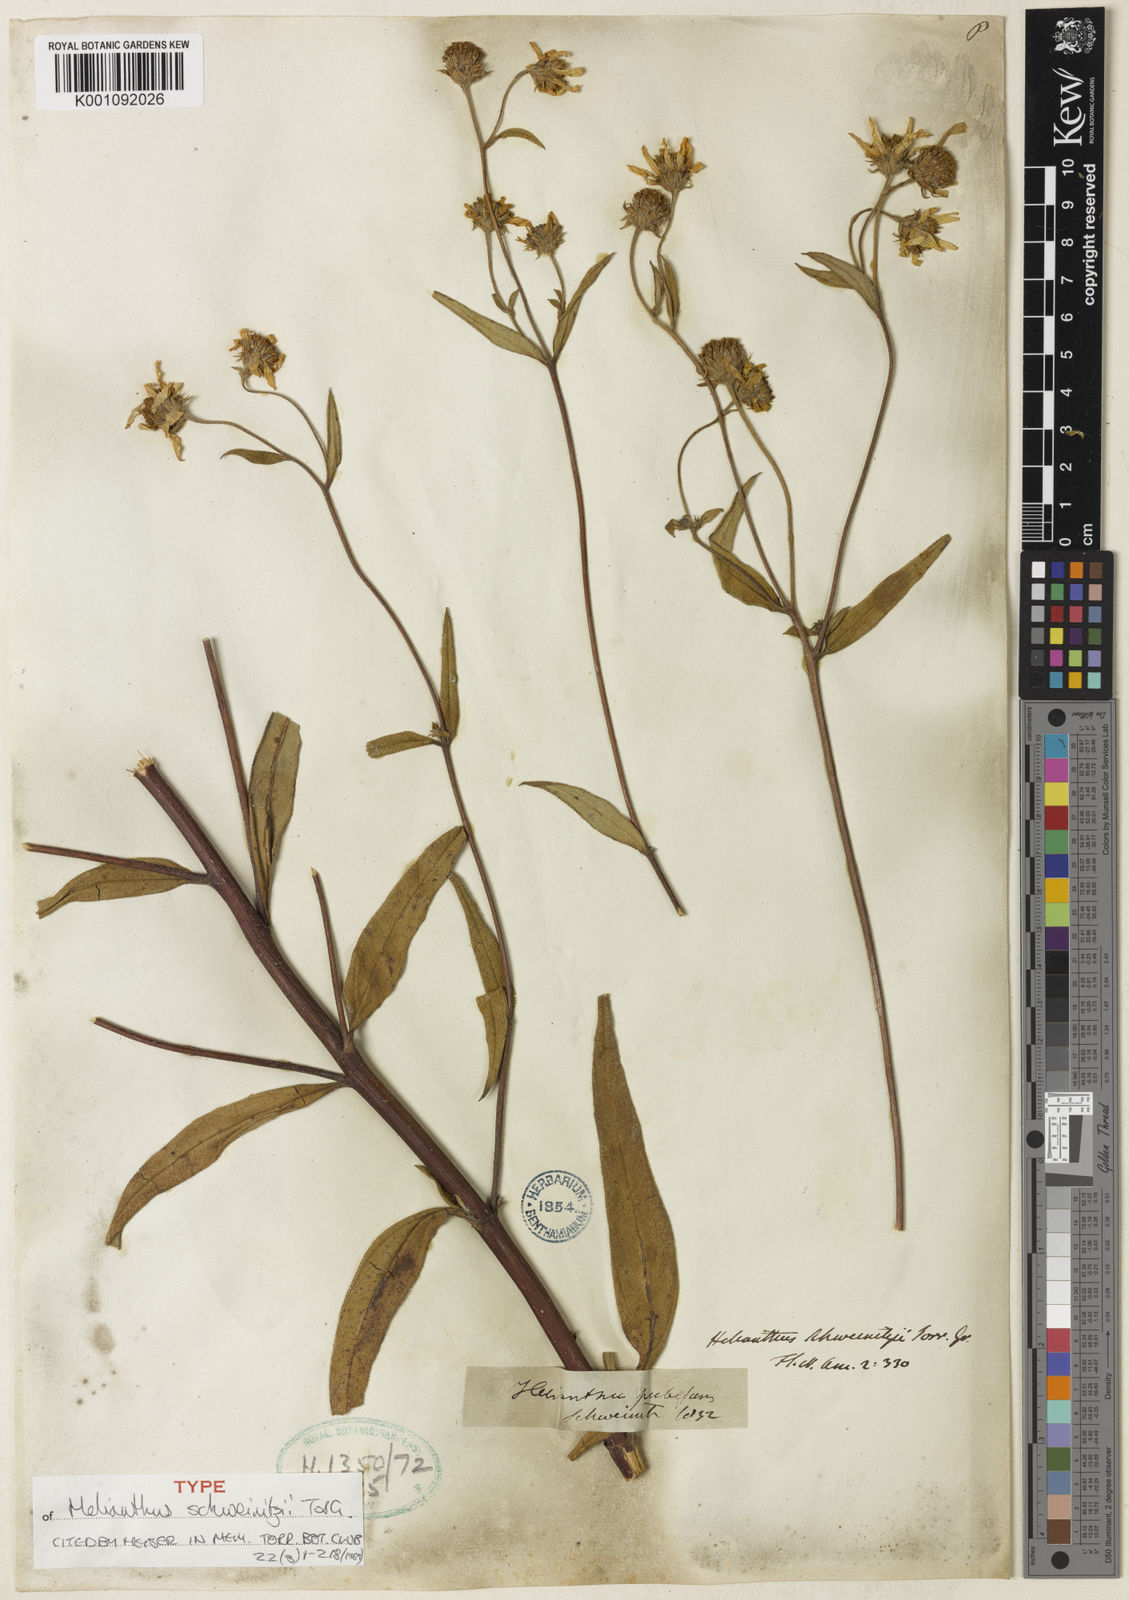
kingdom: Plantae
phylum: Tracheophyta
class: Magnoliopsida
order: Asterales
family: Asteraceae
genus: Helianthus
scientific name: Helianthus schweinitzii
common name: Schweinitz's sunflower
